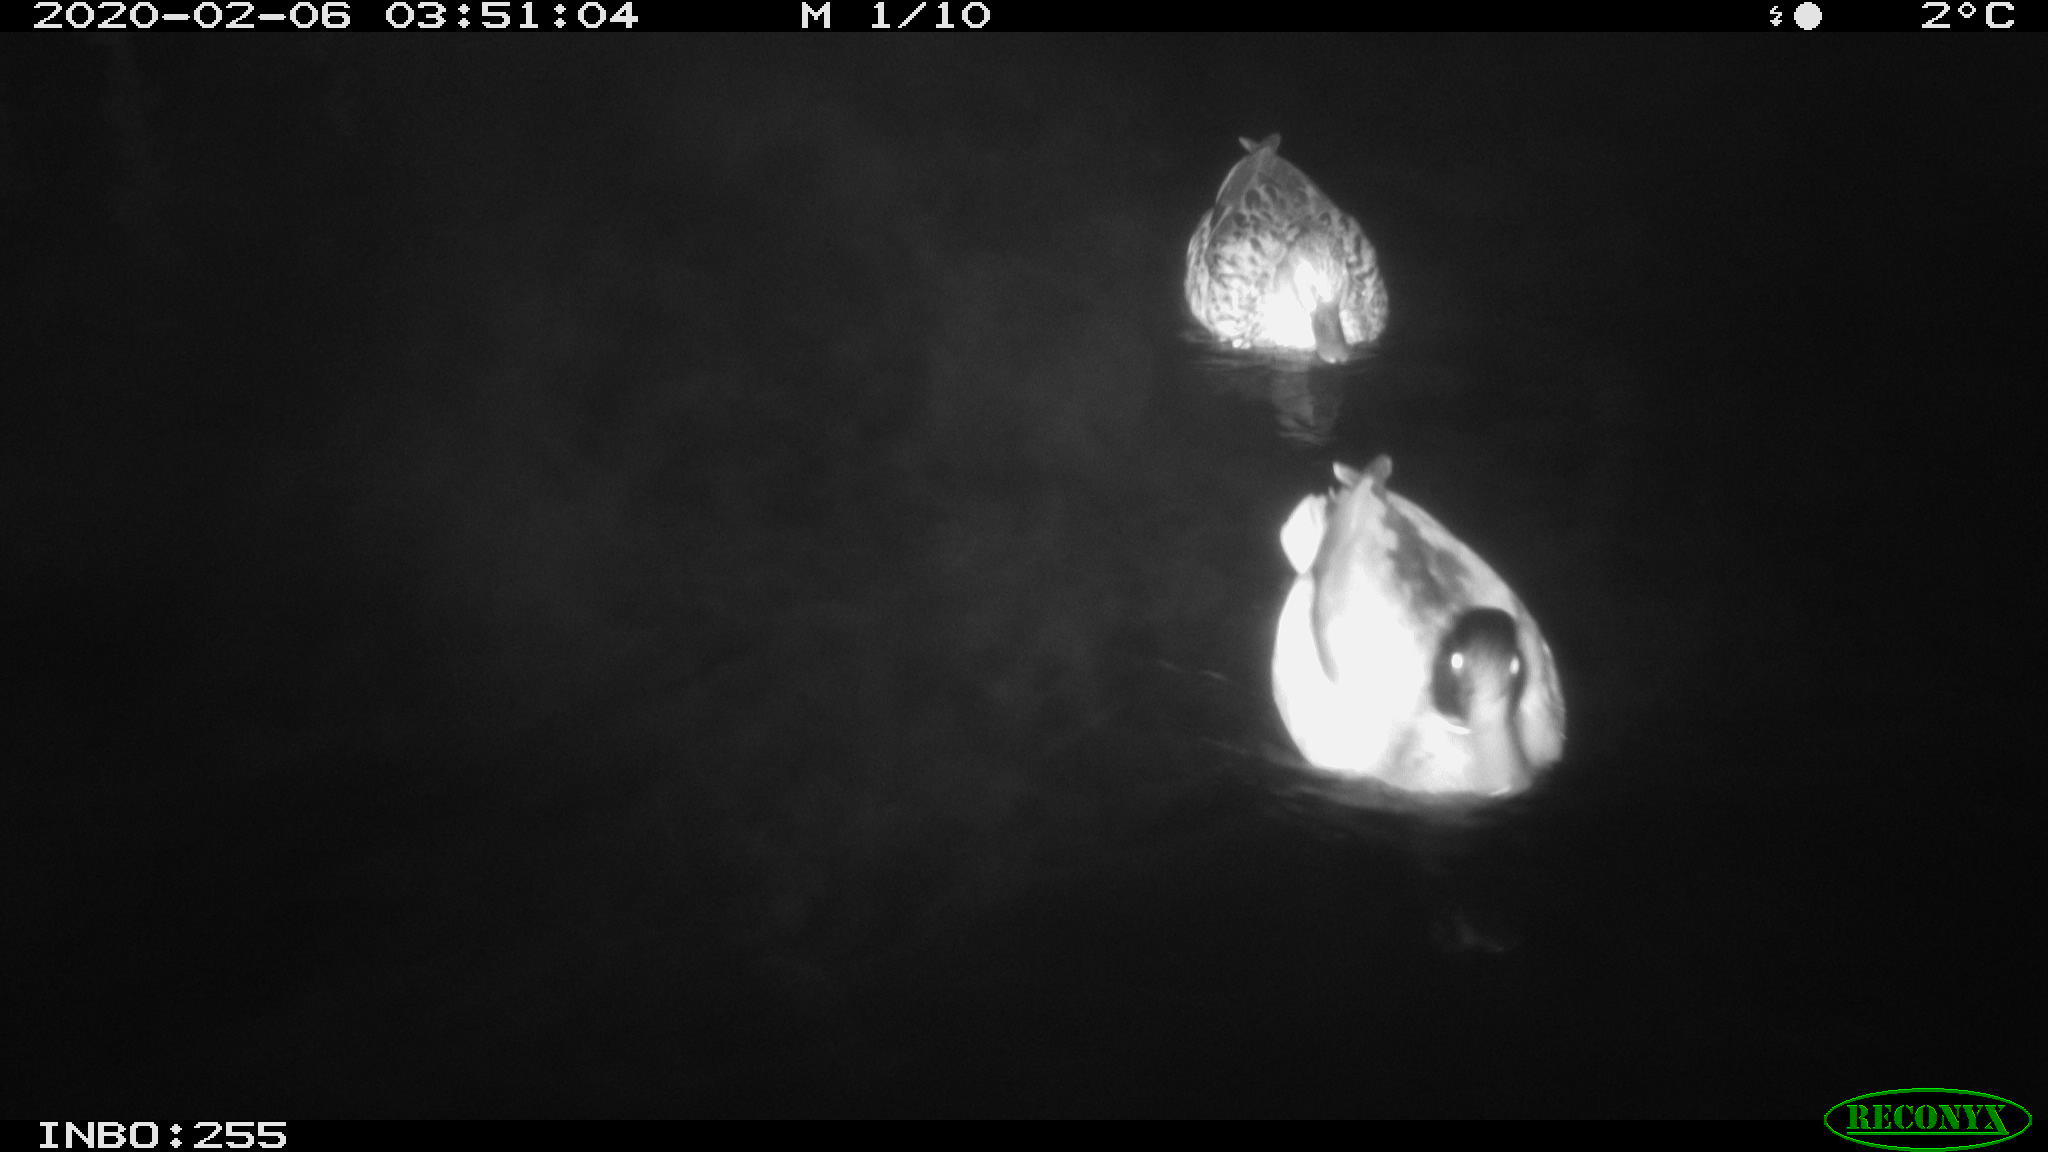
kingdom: Animalia
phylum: Chordata
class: Aves
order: Anseriformes
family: Anatidae
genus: Anas
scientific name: Anas platyrhynchos
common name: Mallard
